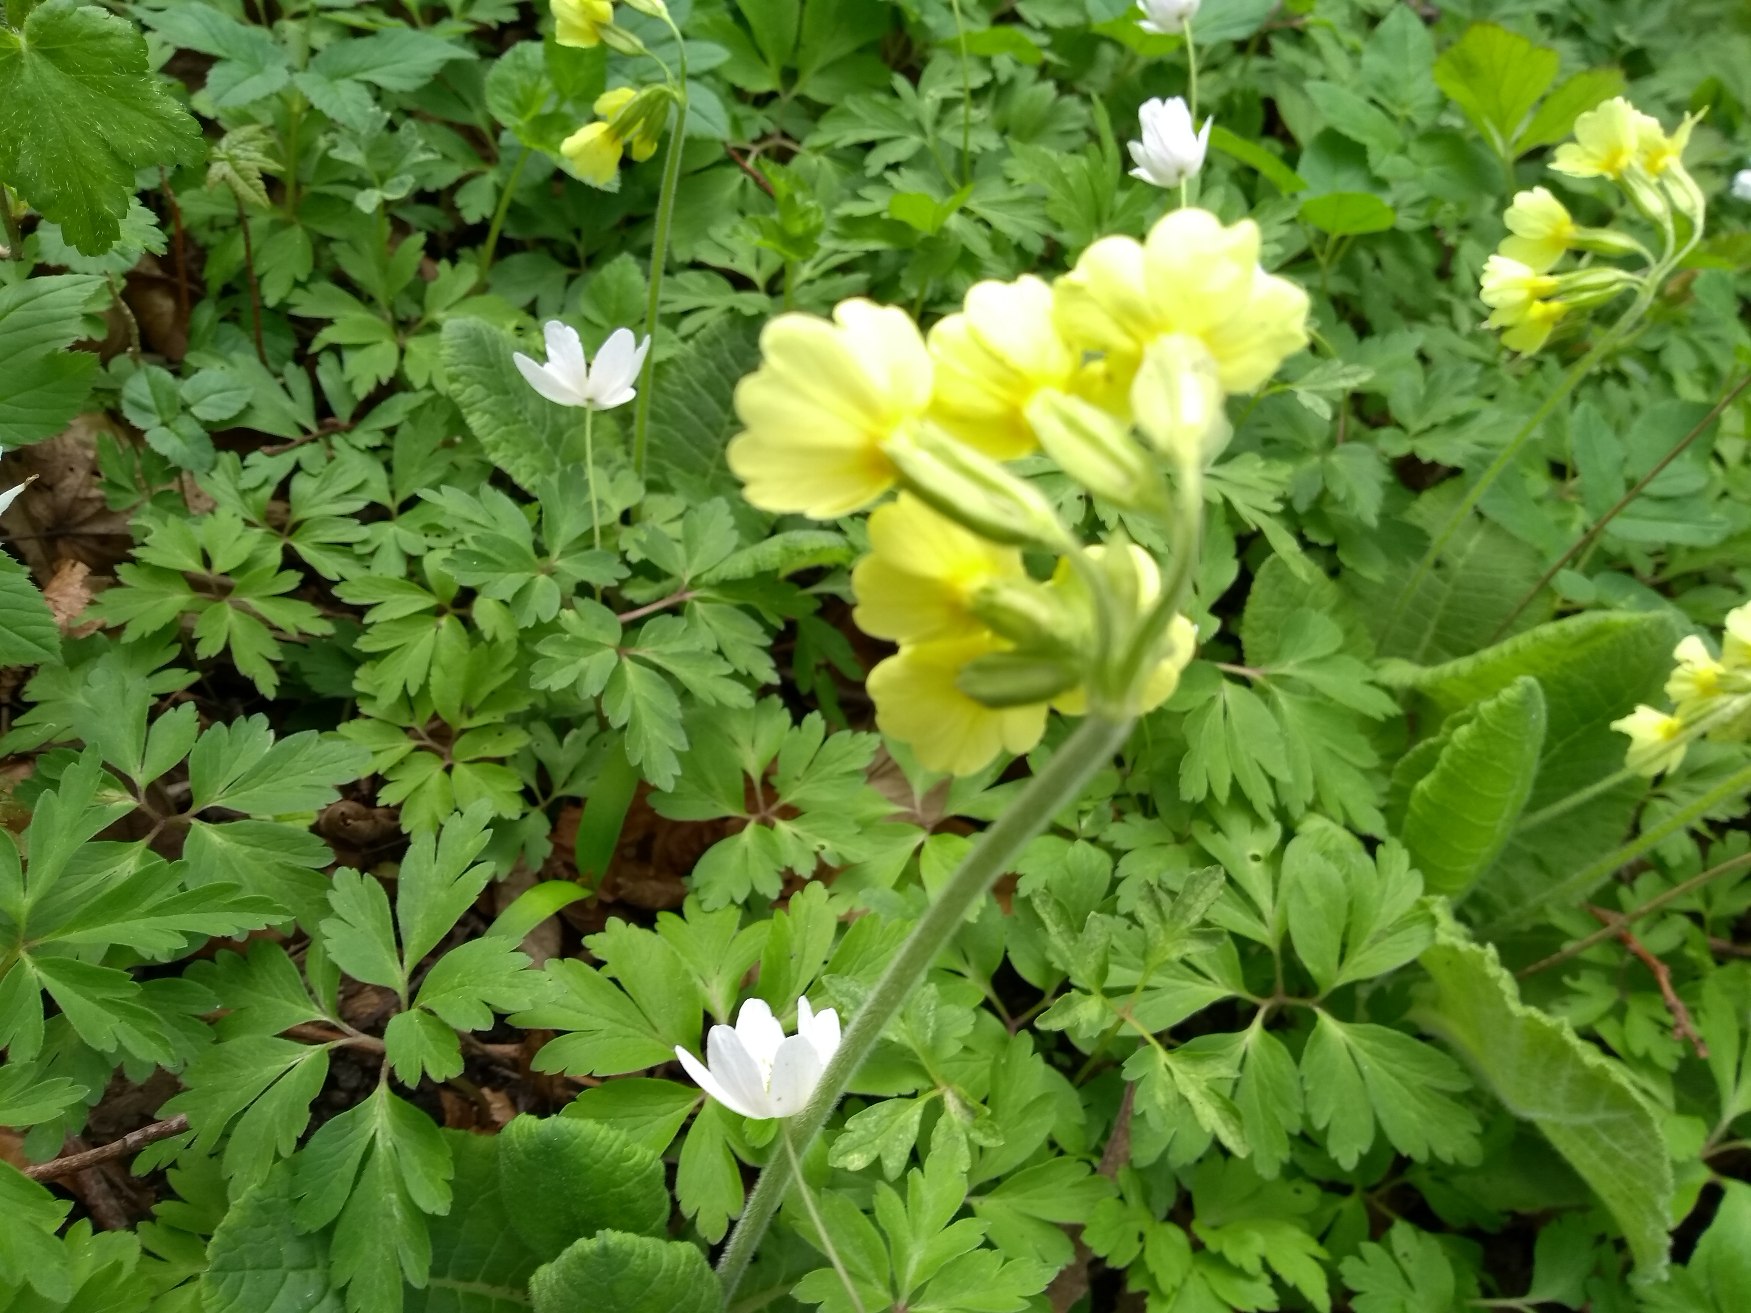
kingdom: Plantae
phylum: Tracheophyta
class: Magnoliopsida
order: Ericales
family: Primulaceae
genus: Primula
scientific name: Primula elatior
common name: Fladkravet kodriver
